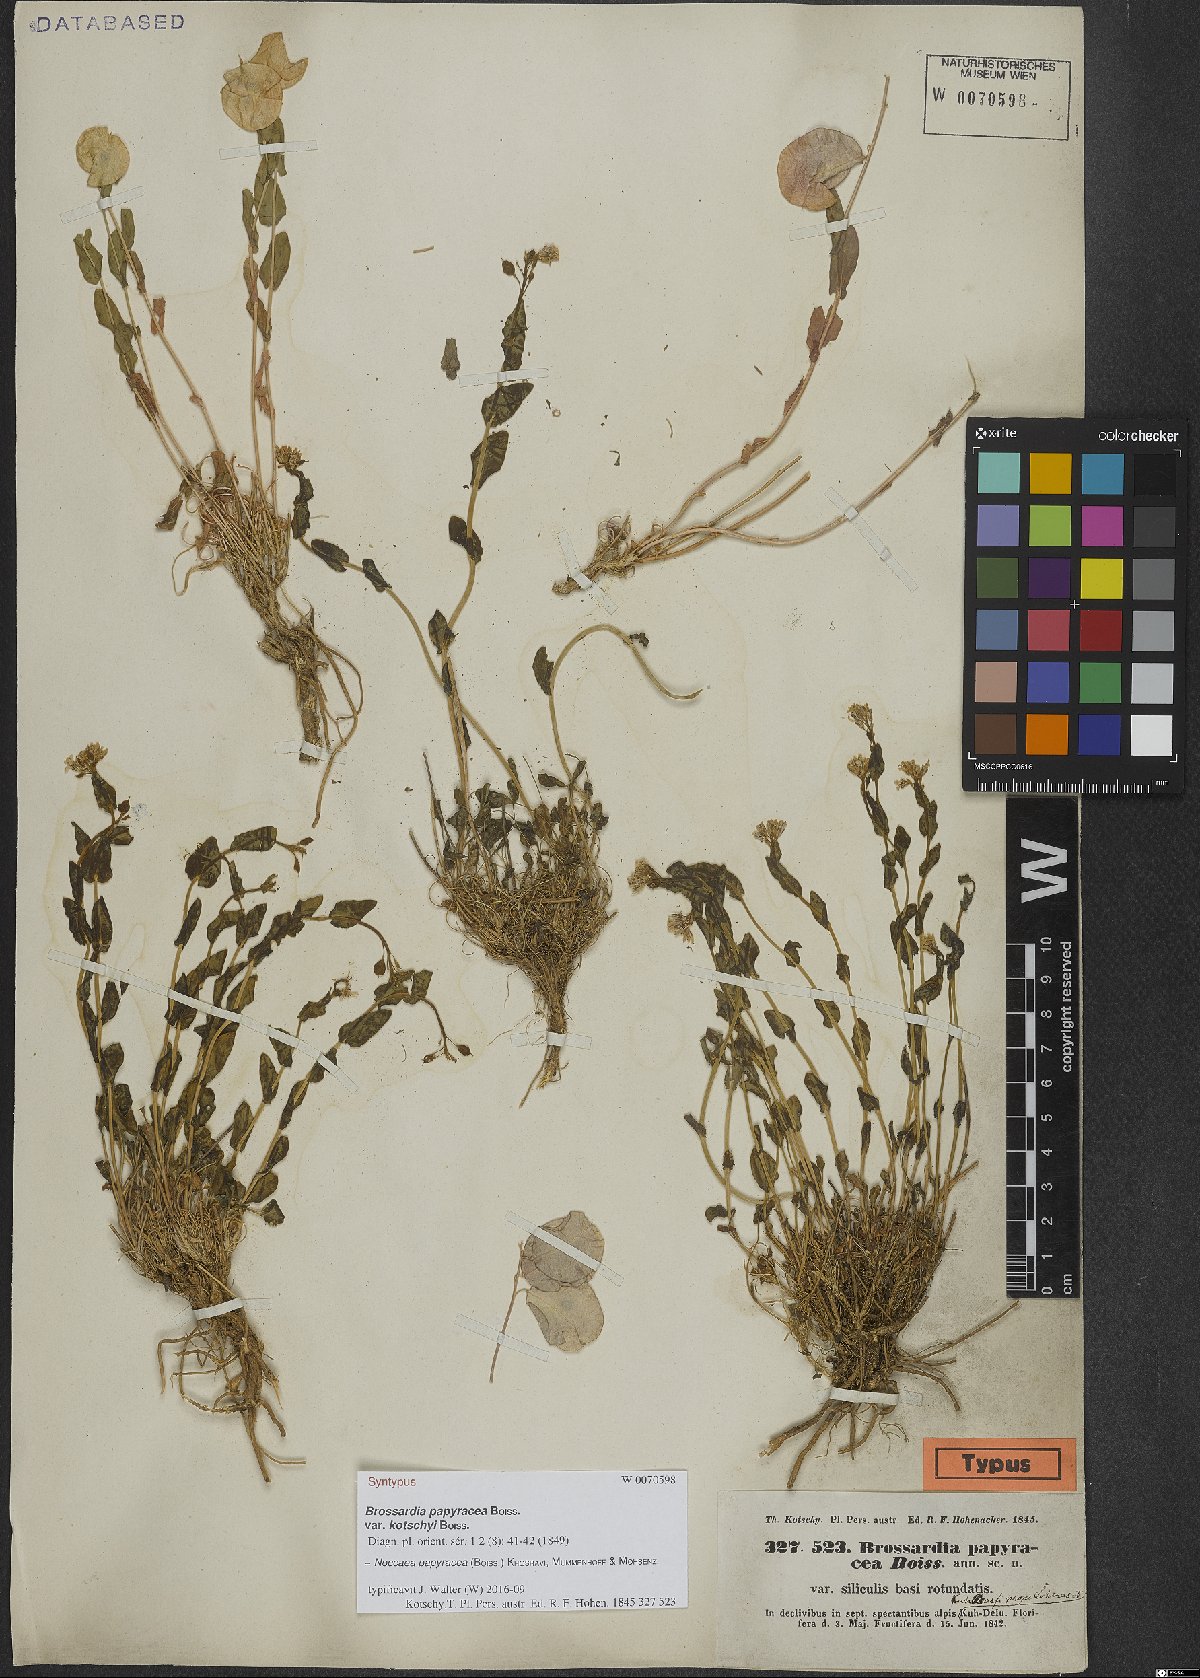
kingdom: Plantae
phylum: Tracheophyta
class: Magnoliopsida
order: Brassicales
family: Brassicaceae
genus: Noccaea
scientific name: Noccaea papyracea
